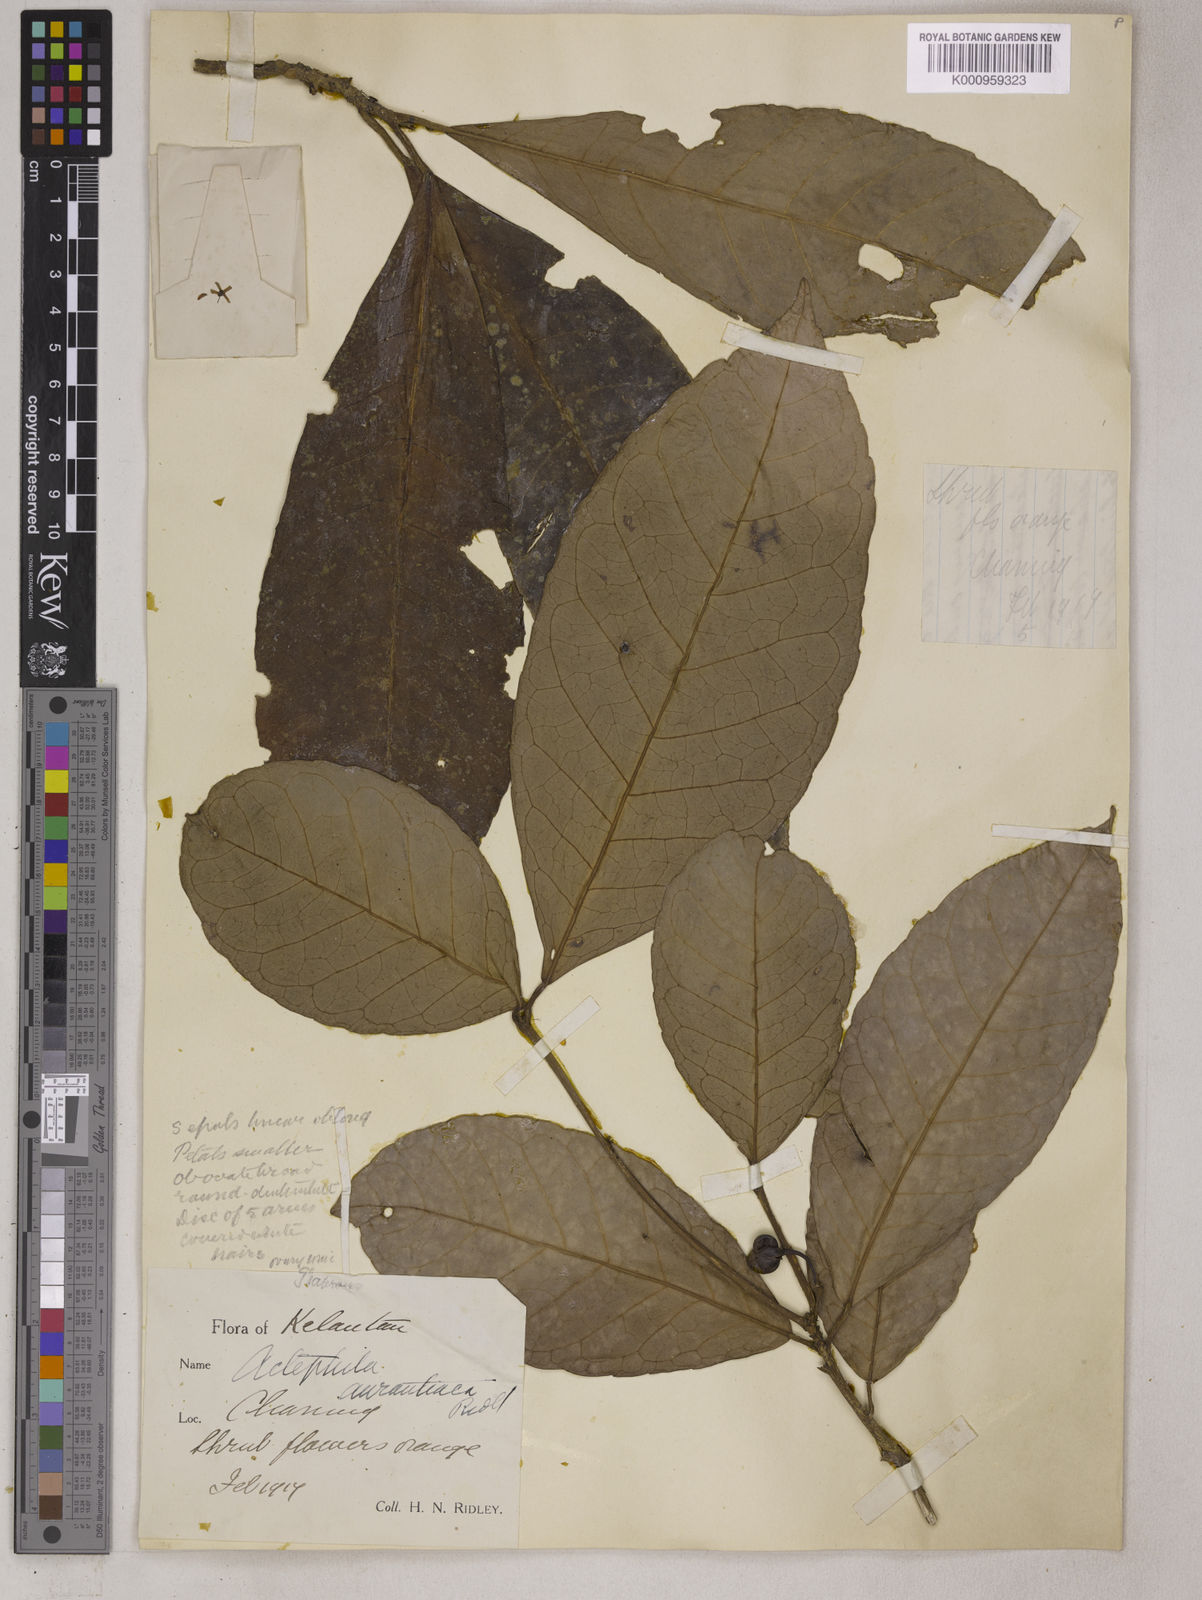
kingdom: Plantae
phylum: Tracheophyta
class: Magnoliopsida
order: Malpighiales
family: Euphorbiaceae
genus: Trigonostemon
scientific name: Trigonostemon aurantiacus
